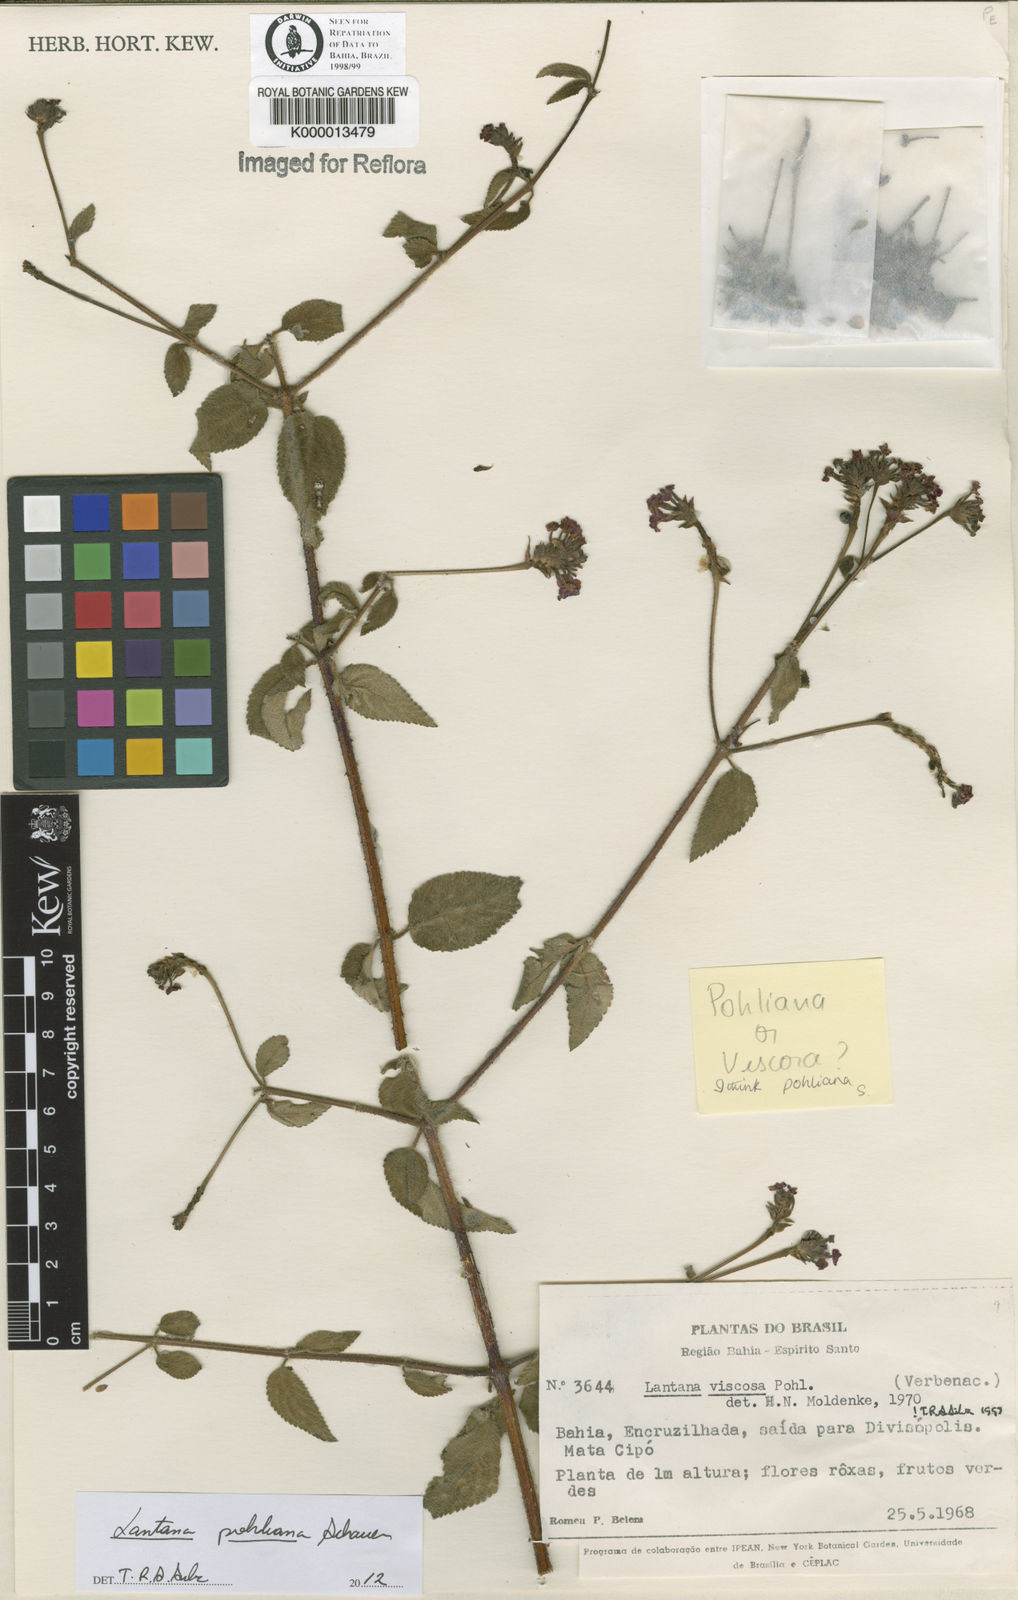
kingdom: Plantae
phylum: Tracheophyta
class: Magnoliopsida
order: Lamiales
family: Verbenaceae
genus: Lantana
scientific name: Lantana pohliana
